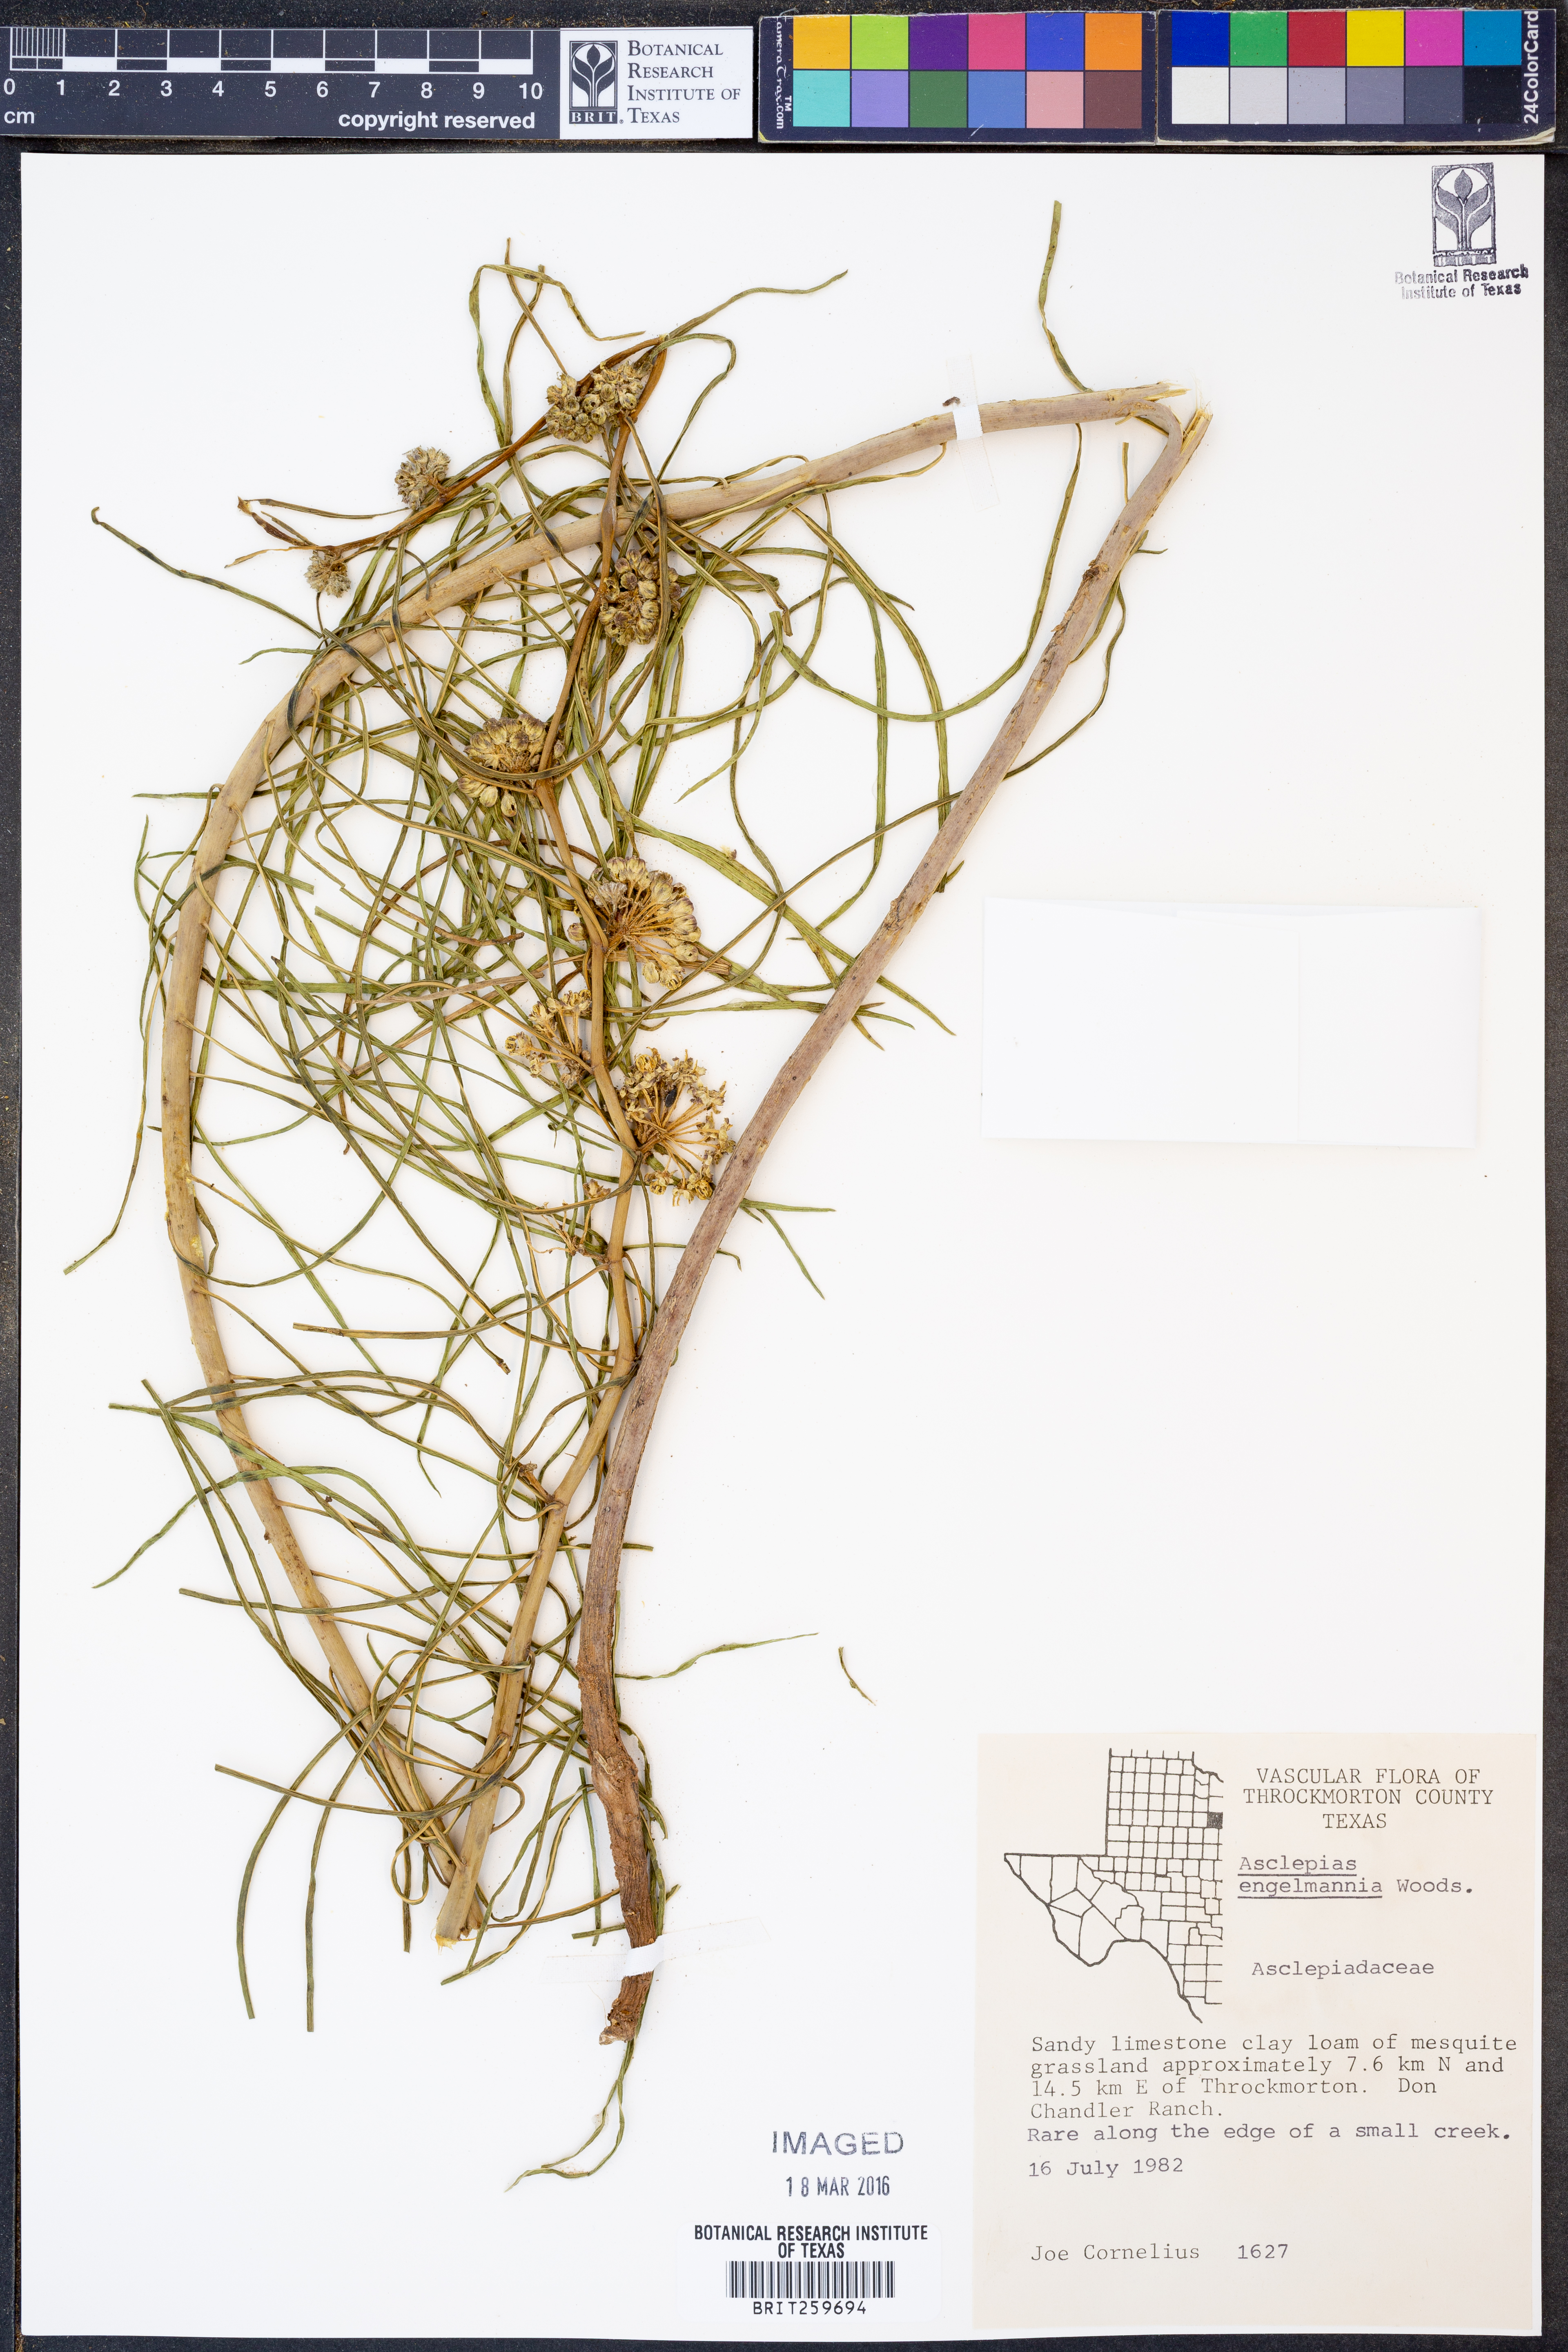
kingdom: Plantae
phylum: Tracheophyta
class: Magnoliopsida
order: Gentianales
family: Apocynaceae
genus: Asclepias
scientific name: Asclepias engelmanniana
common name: Engelmann's milkweed
